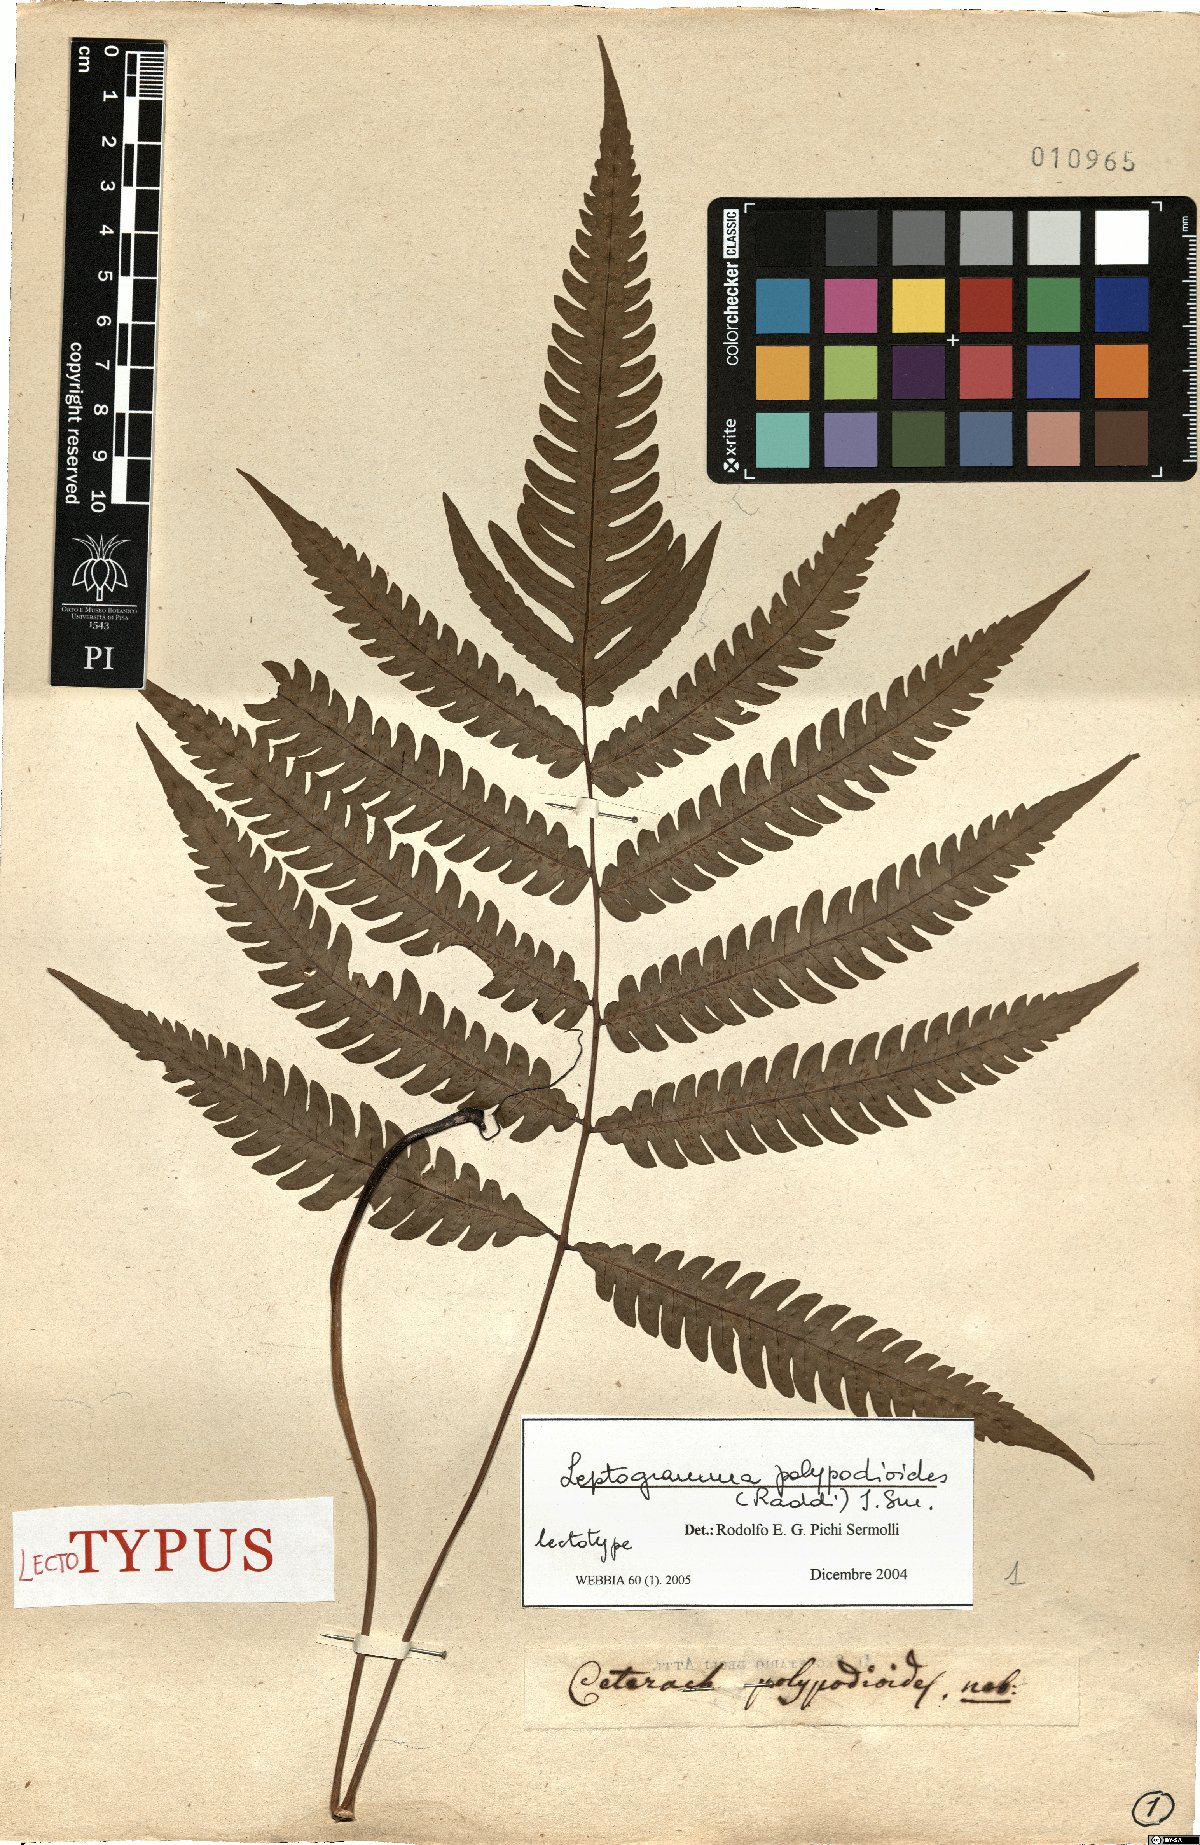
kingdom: Plantae
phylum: Tracheophyta
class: Polypodiopsida
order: Polypodiales
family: Thelypteridaceae
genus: Steiropteris
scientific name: Steiropteris polypodioides
